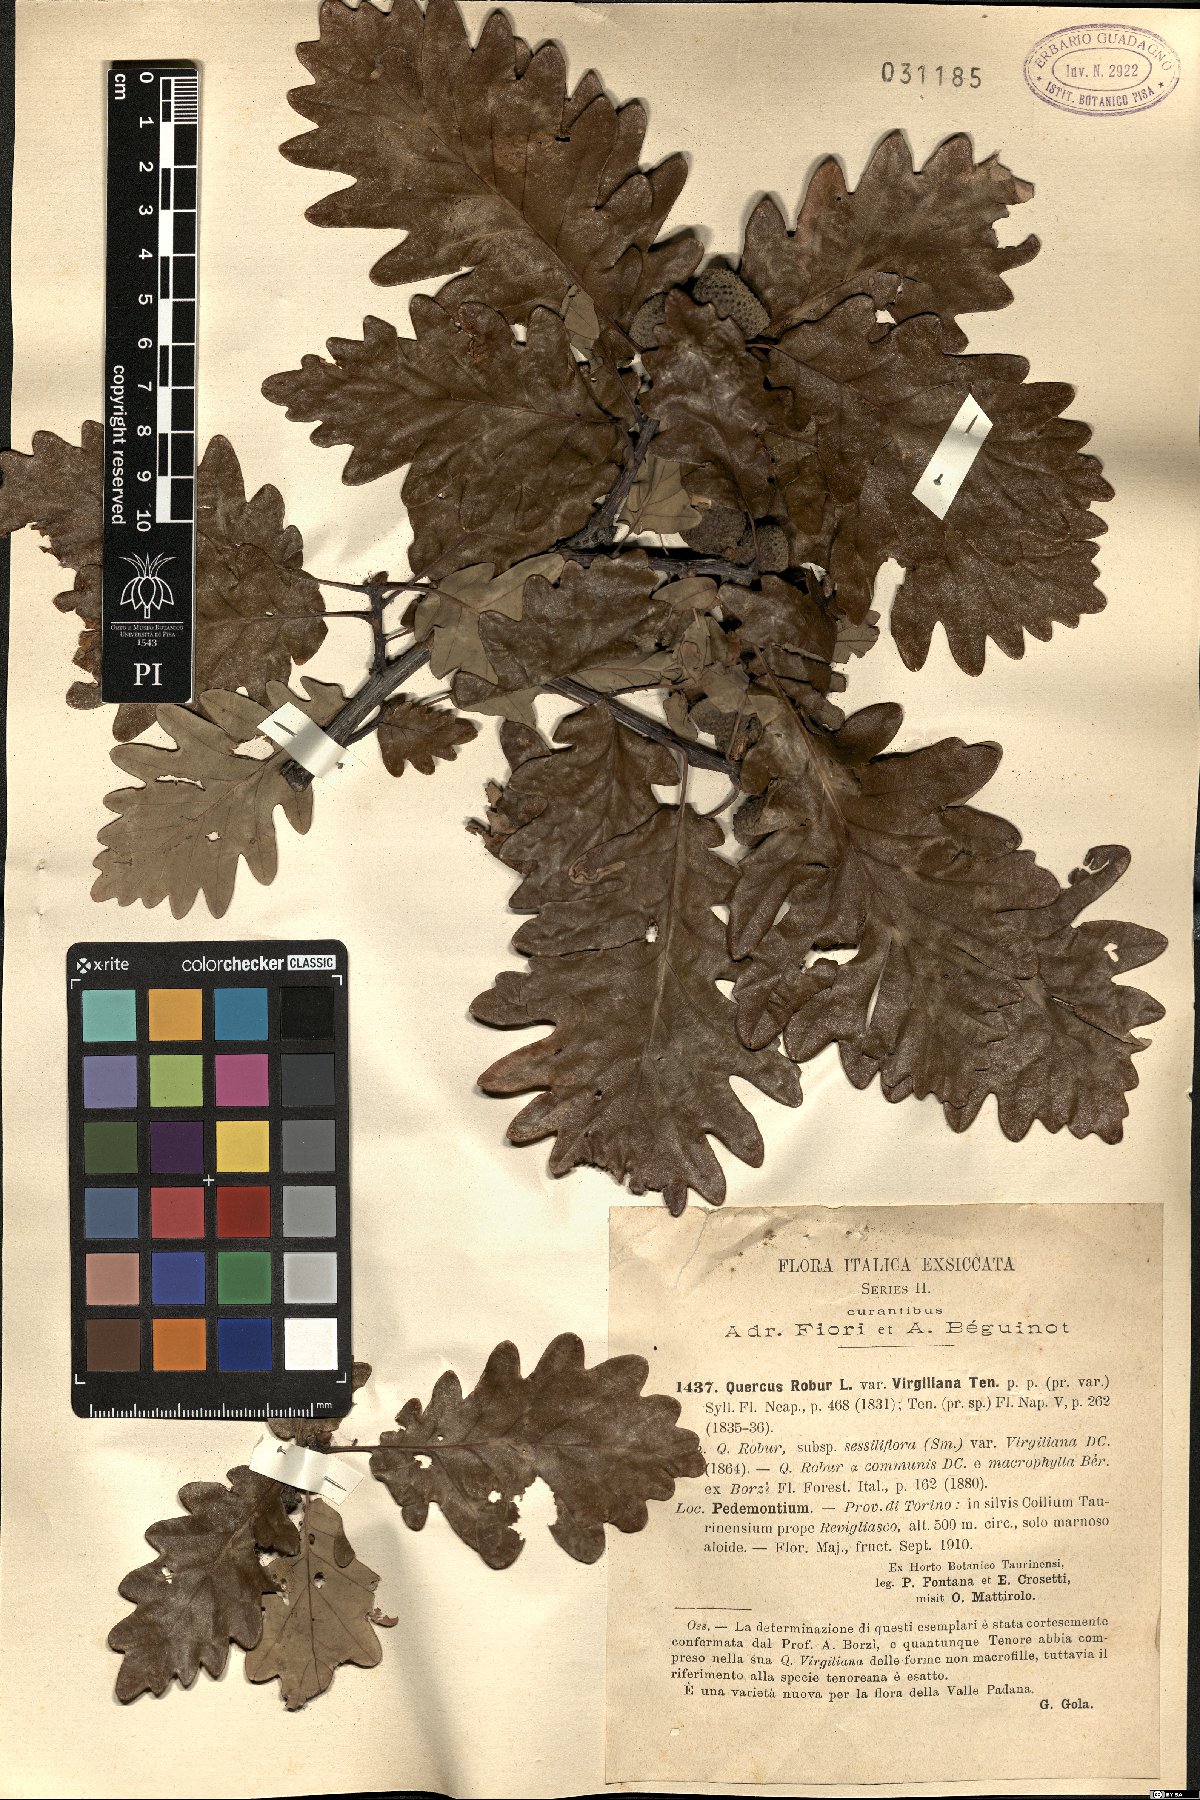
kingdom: Plantae
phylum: Tracheophyta
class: Magnoliopsida
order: Fagales
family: Fagaceae
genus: Quercus
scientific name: Quercus pubescens
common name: Downy oak
